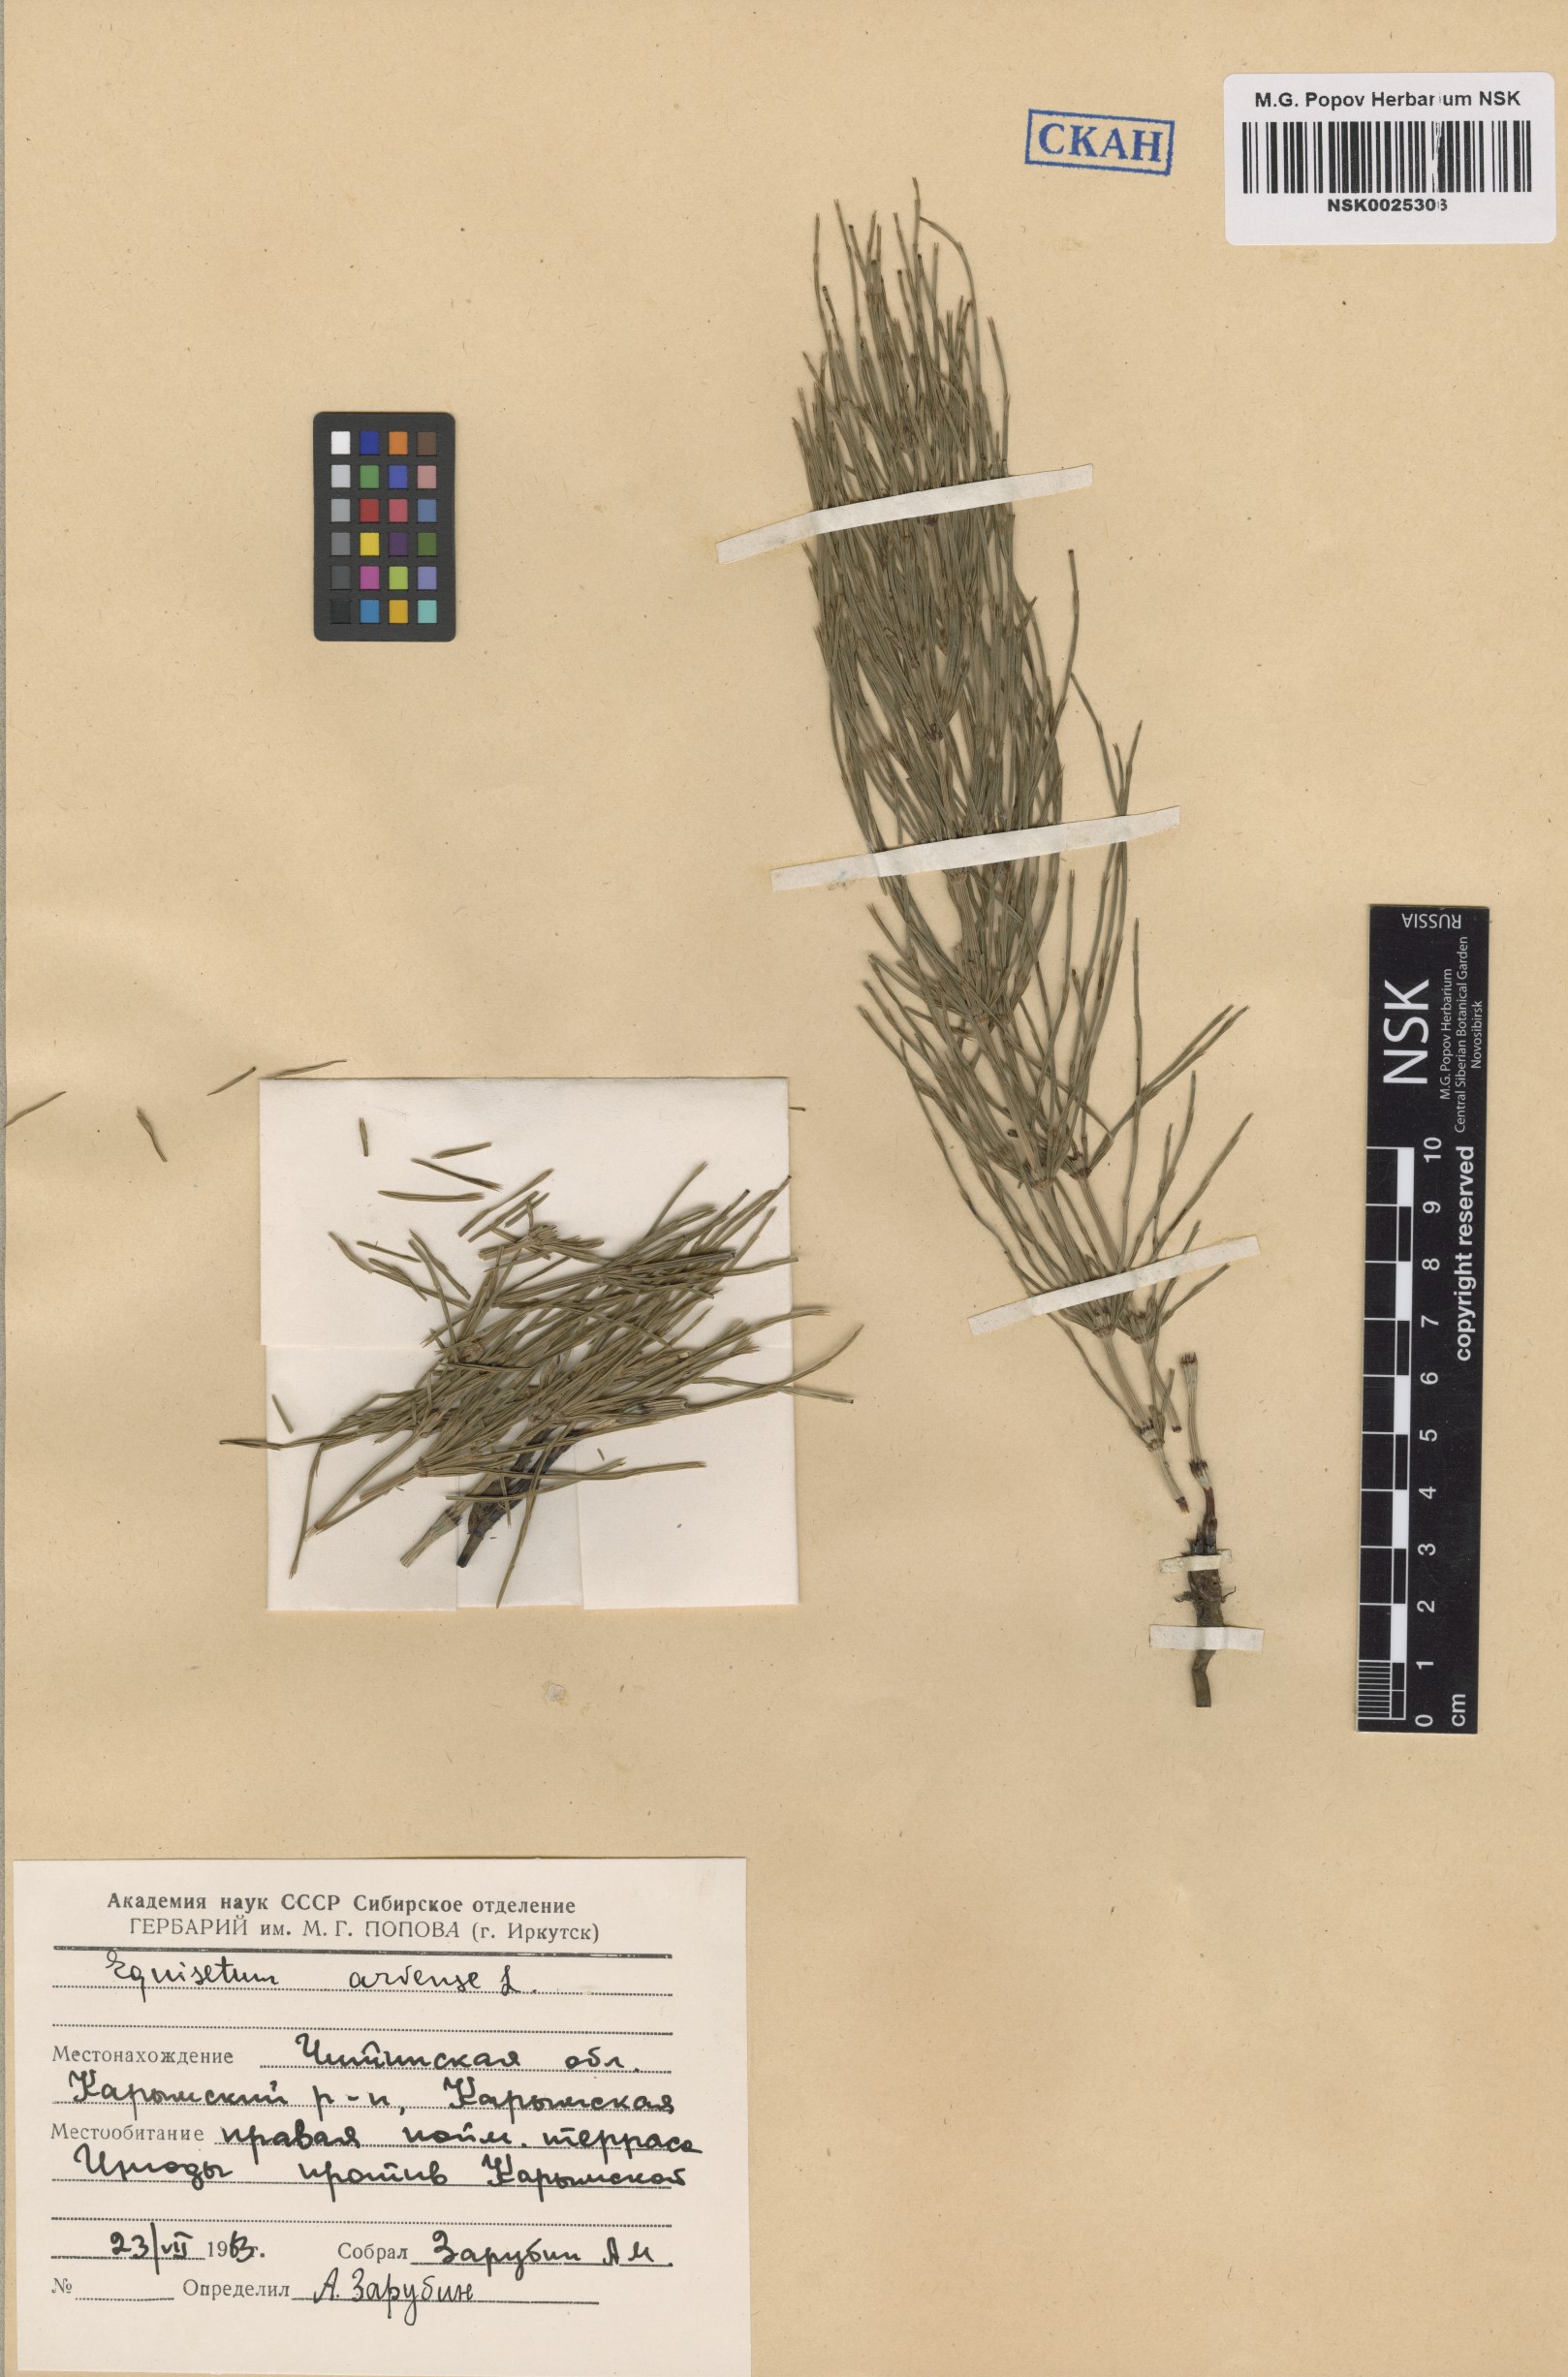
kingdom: Plantae
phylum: Tracheophyta
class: Polypodiopsida
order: Equisetales
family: Equisetaceae
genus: Equisetum
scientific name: Equisetum arvense
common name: Field horsetail
